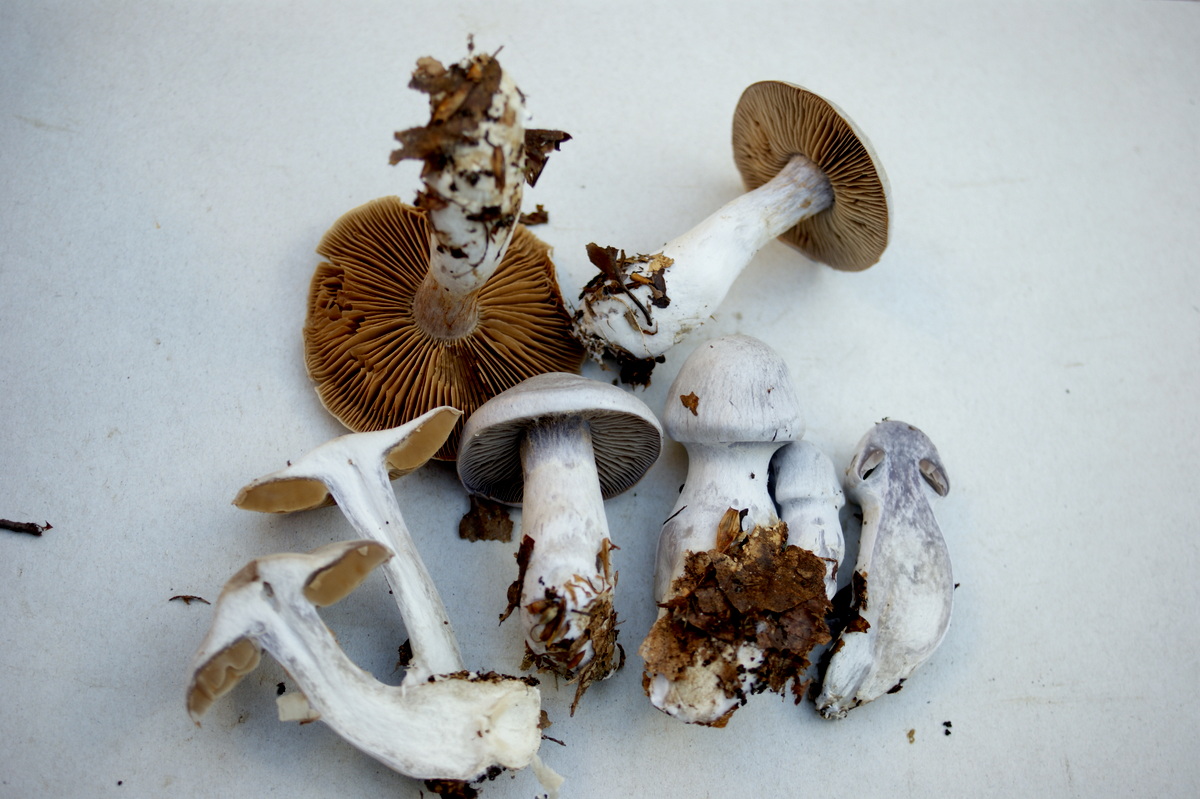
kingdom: Fungi
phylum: Basidiomycota
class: Agaricomycetes
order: Agaricales
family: Cortinariaceae
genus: Cortinarius
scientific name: Cortinarius alboviolaceus
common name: lysviolet slørhat
